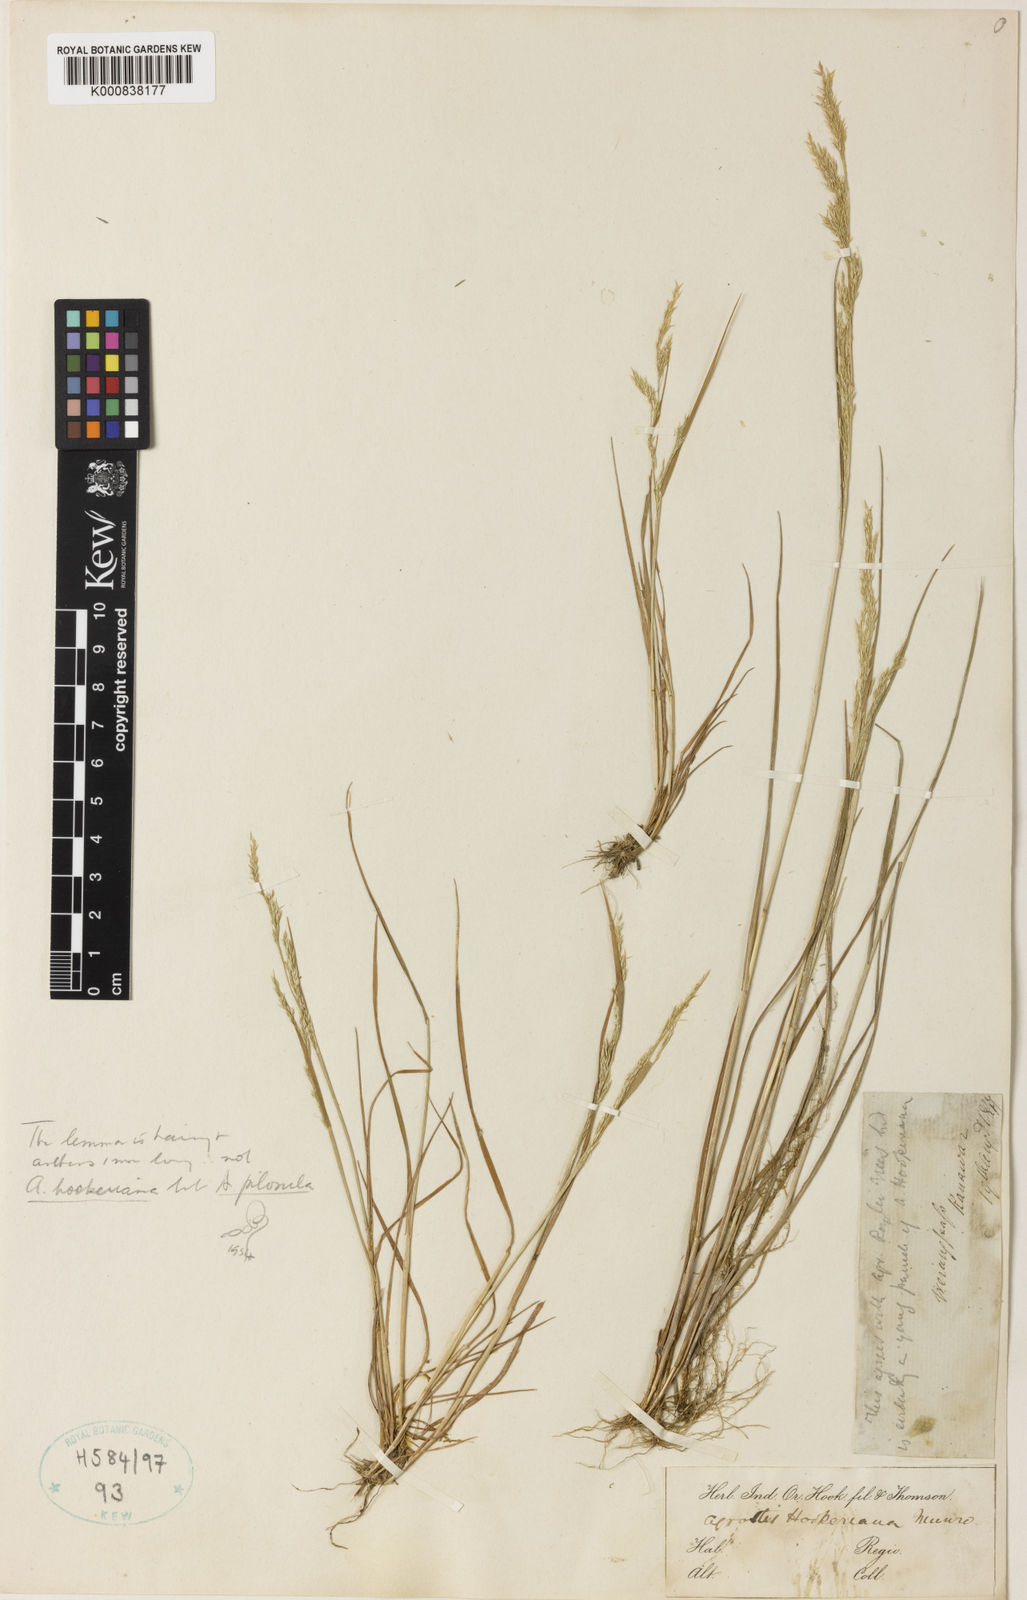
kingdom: Plantae
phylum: Tracheophyta
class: Liliopsida
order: Poales
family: Poaceae
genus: Agrostis
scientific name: Agrostis
